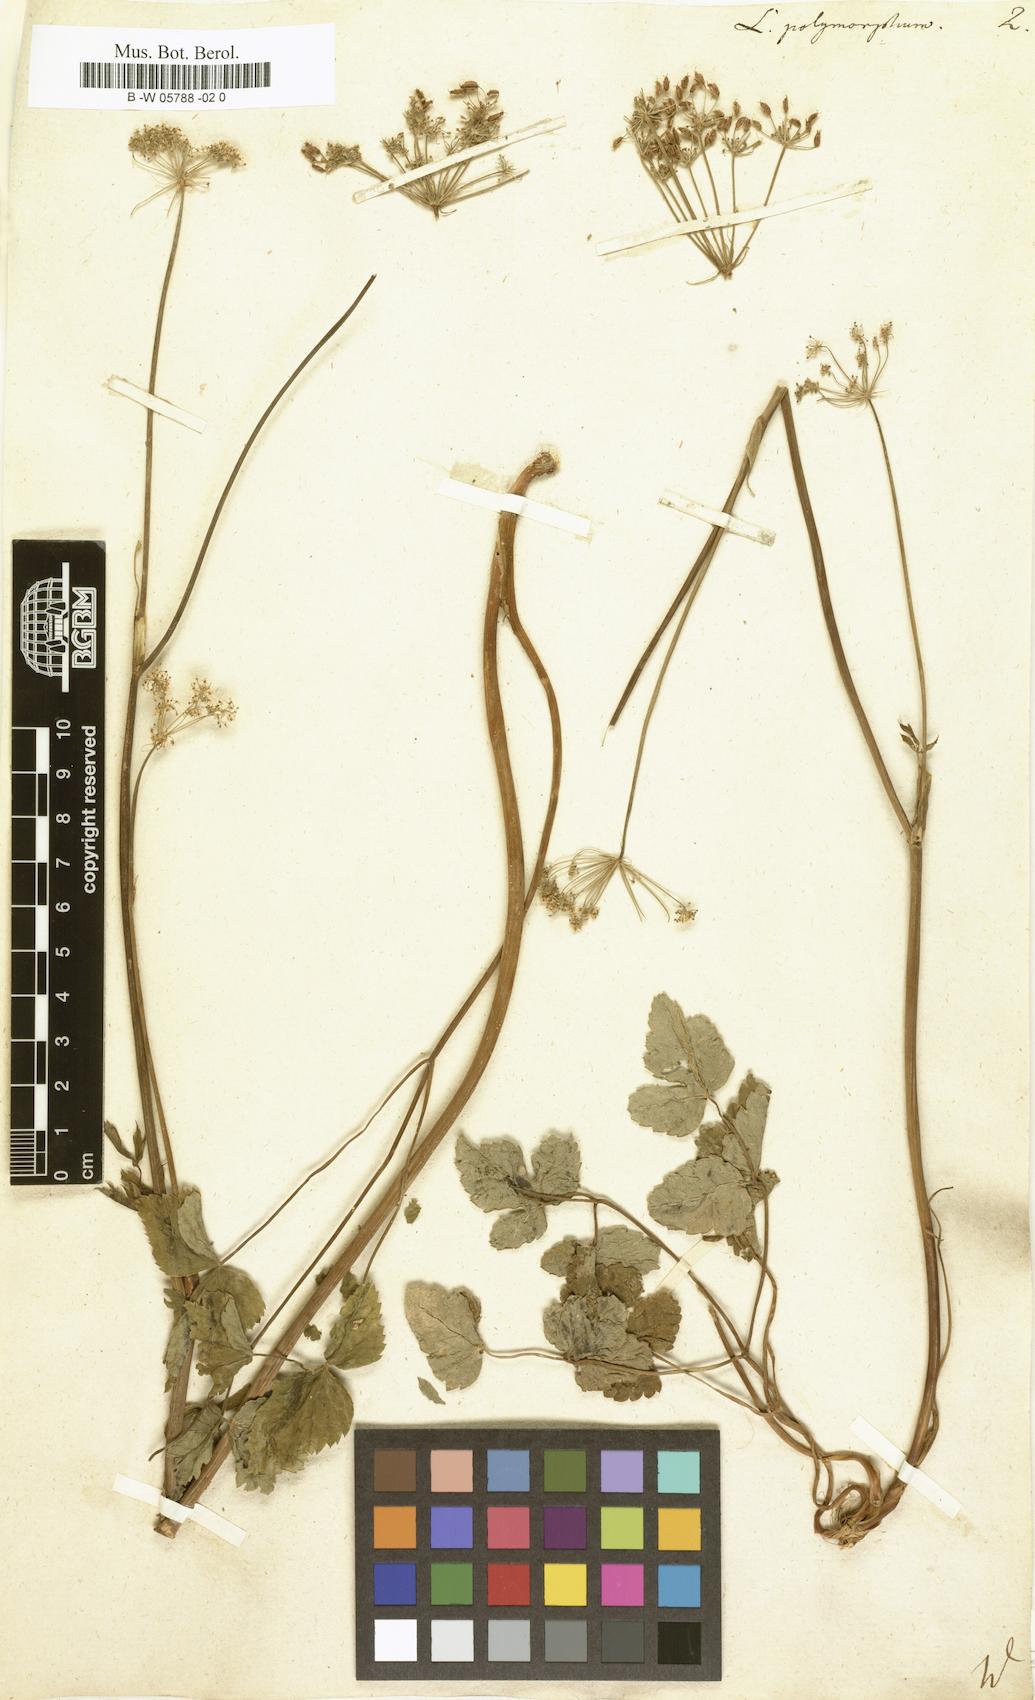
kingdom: Plantae
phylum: Tracheophyta
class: Magnoliopsida
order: Apiales
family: Apiaceae
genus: Laserpitium
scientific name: Laserpitium
